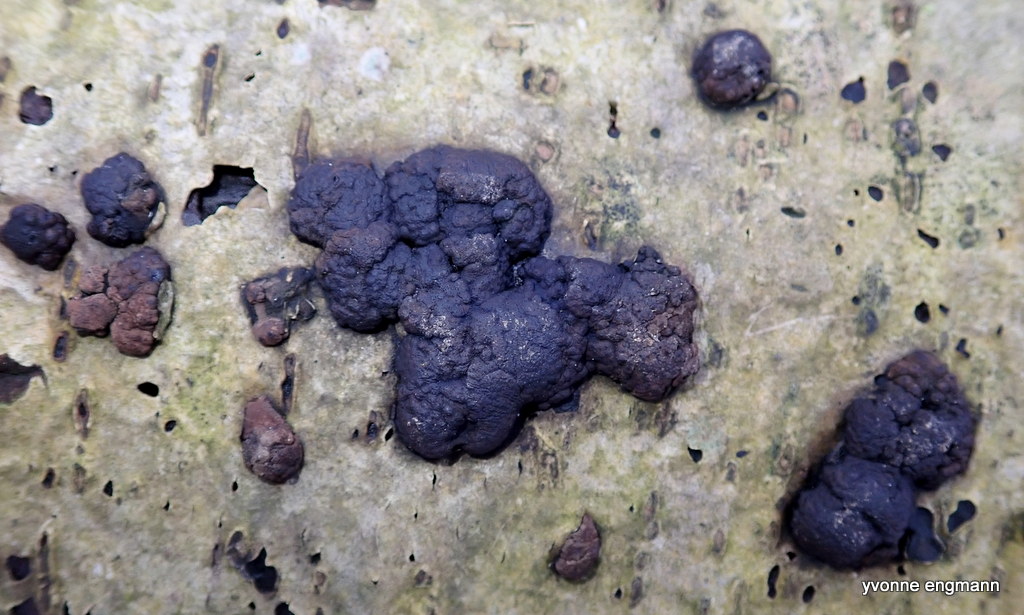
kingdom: Fungi
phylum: Ascomycota
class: Sordariomycetes
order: Xylariales
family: Hypoxylaceae
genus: Jackrogersella
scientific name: Jackrogersella
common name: kulbær
